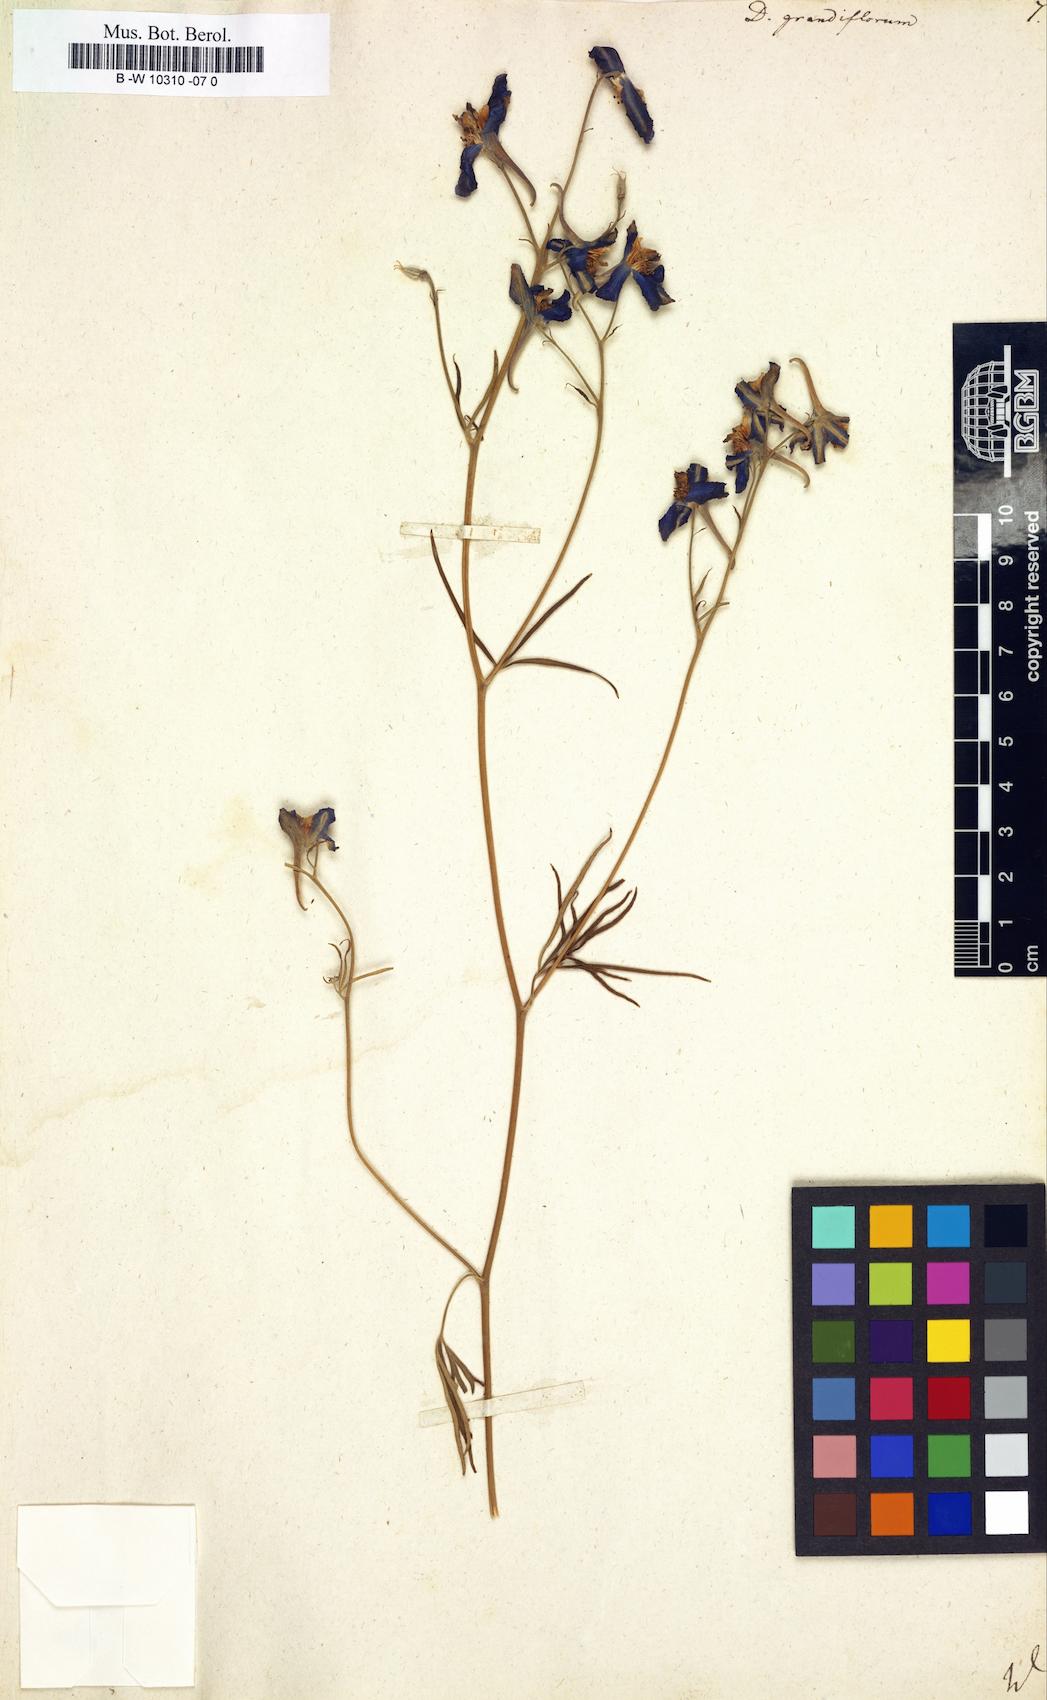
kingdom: Plantae
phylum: Tracheophyta
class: Magnoliopsida
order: Ranunculales
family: Ranunculaceae
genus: Delphinium
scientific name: Delphinium grandiflorum
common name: Siberian larkspur
